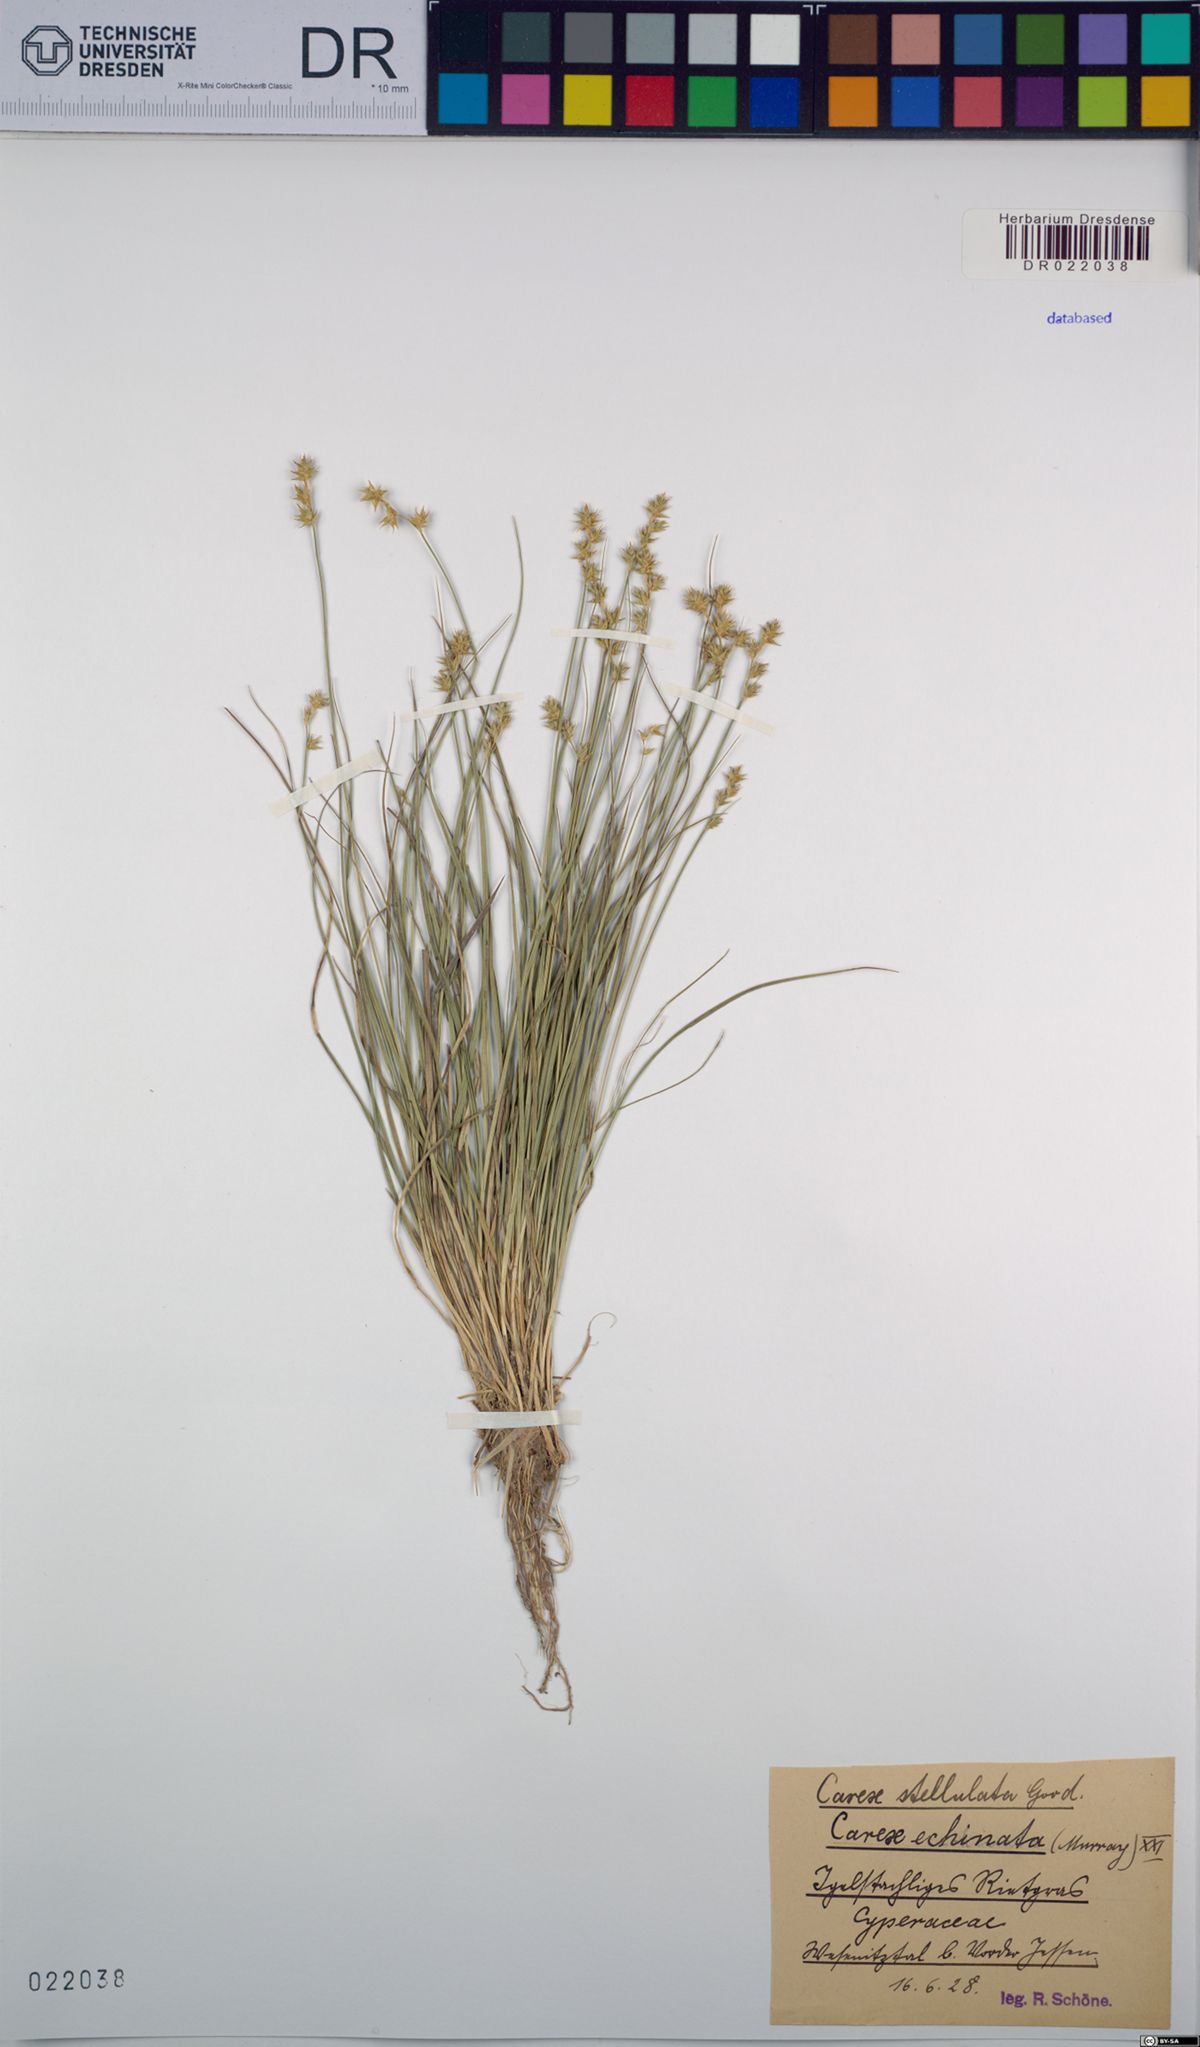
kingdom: Plantae
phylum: Tracheophyta
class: Liliopsida
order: Poales
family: Cyperaceae
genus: Carex
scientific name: Carex echinata
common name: Star sedge
